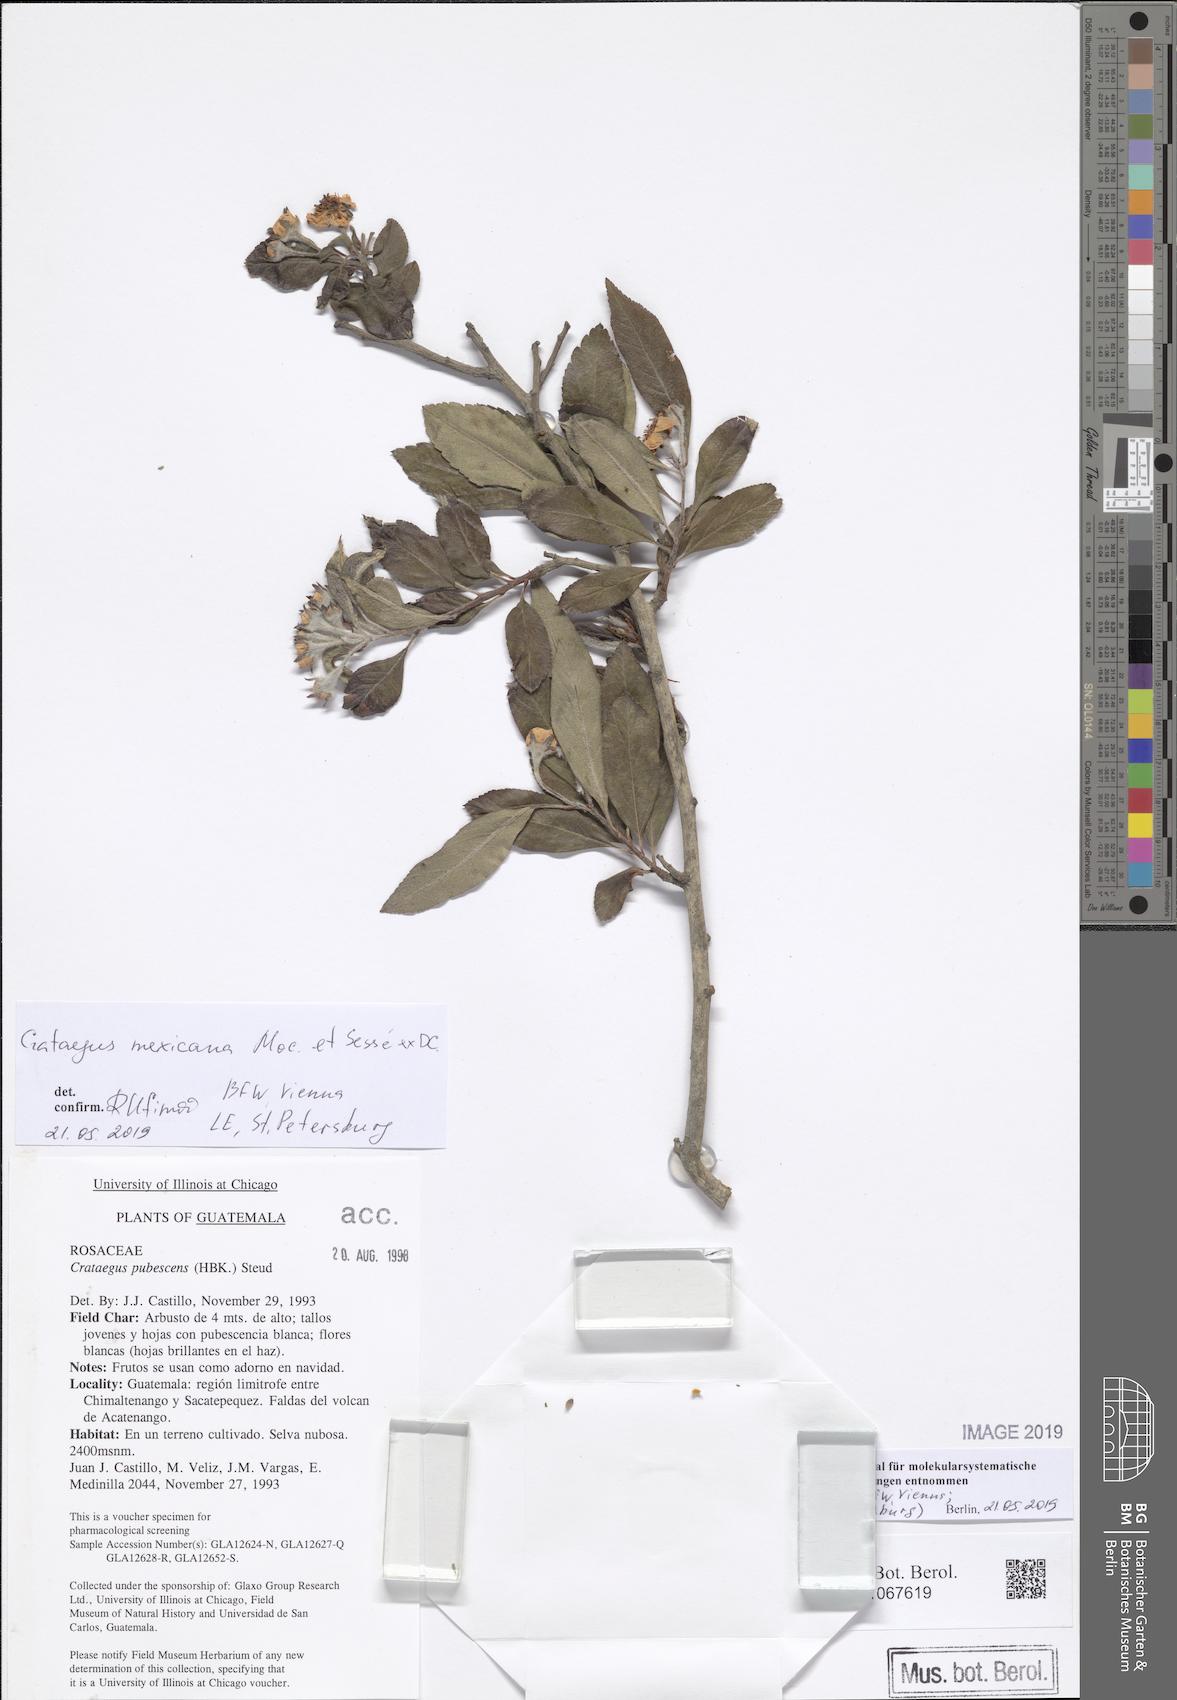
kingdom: Plantae
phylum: Tracheophyta
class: Magnoliopsida
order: Rosales
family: Rosaceae
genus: Crataegus
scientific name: Crataegus mexicana
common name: Mexican hawthorn
